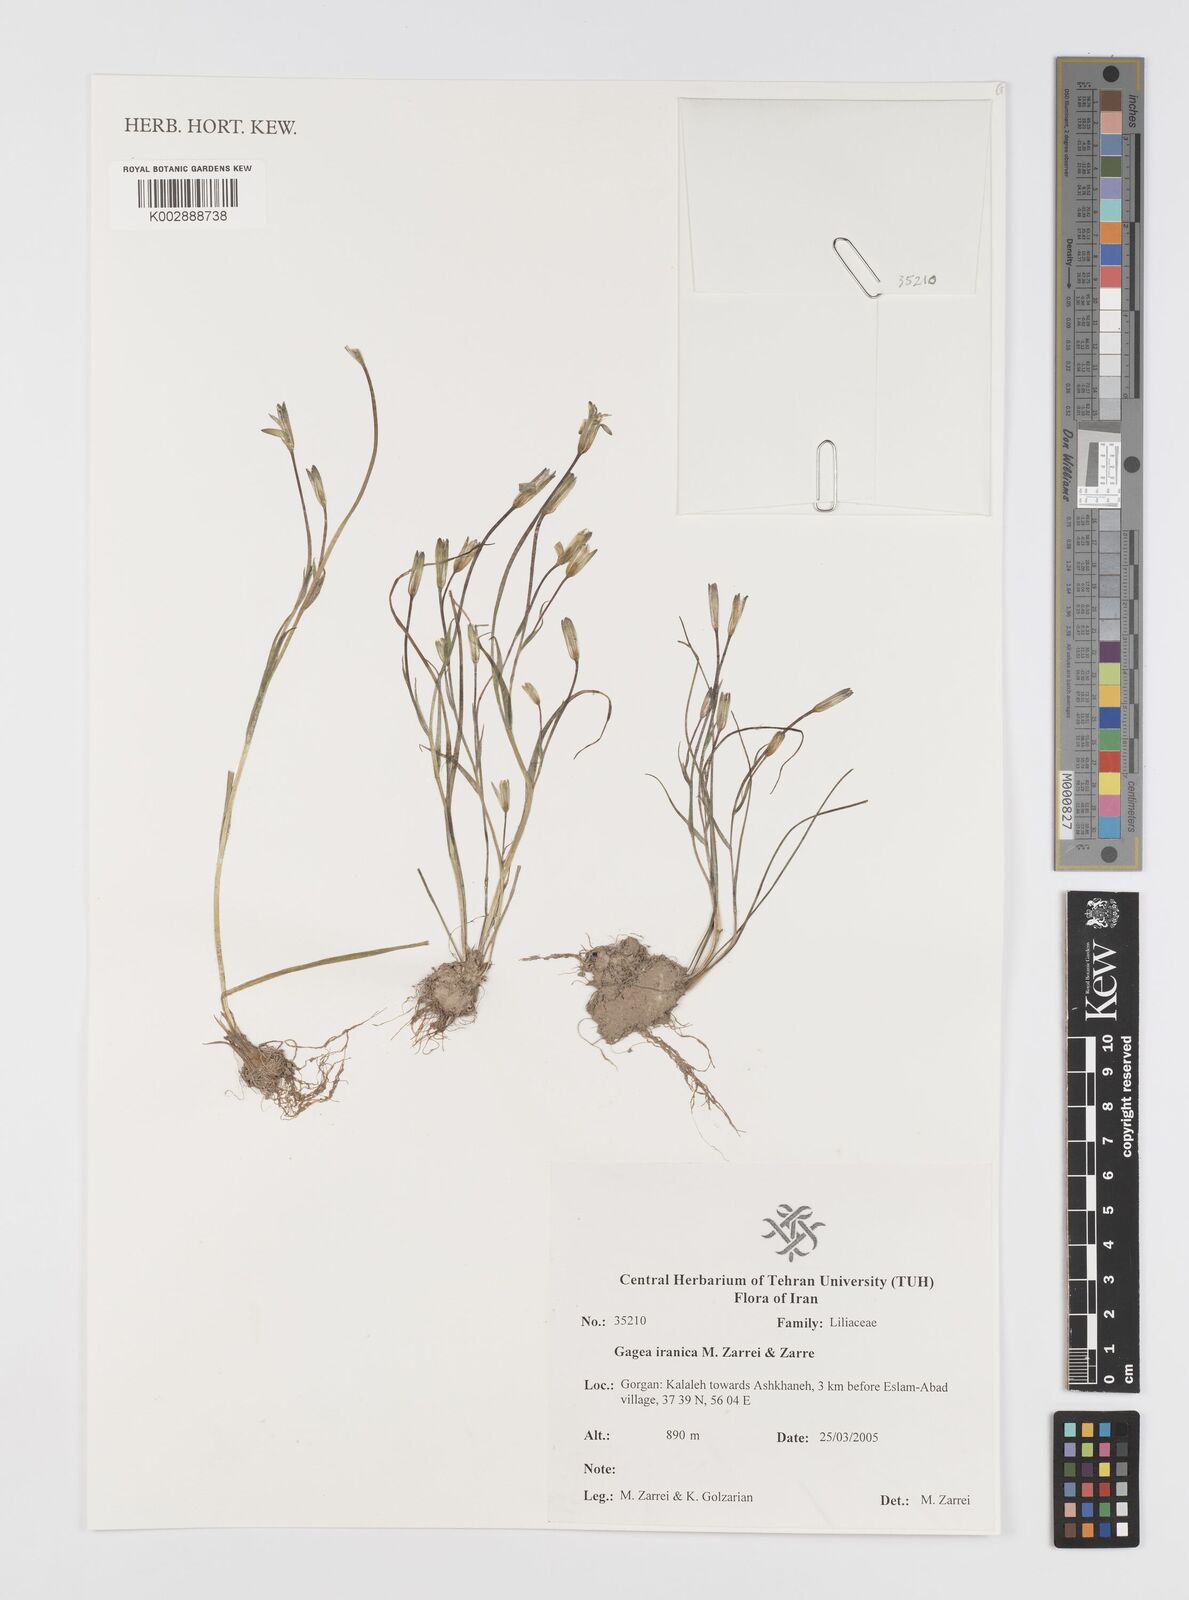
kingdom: Plantae
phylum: Tracheophyta
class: Liliopsida
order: Liliales
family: Liliaceae
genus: Gagea
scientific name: Gagea iranica
